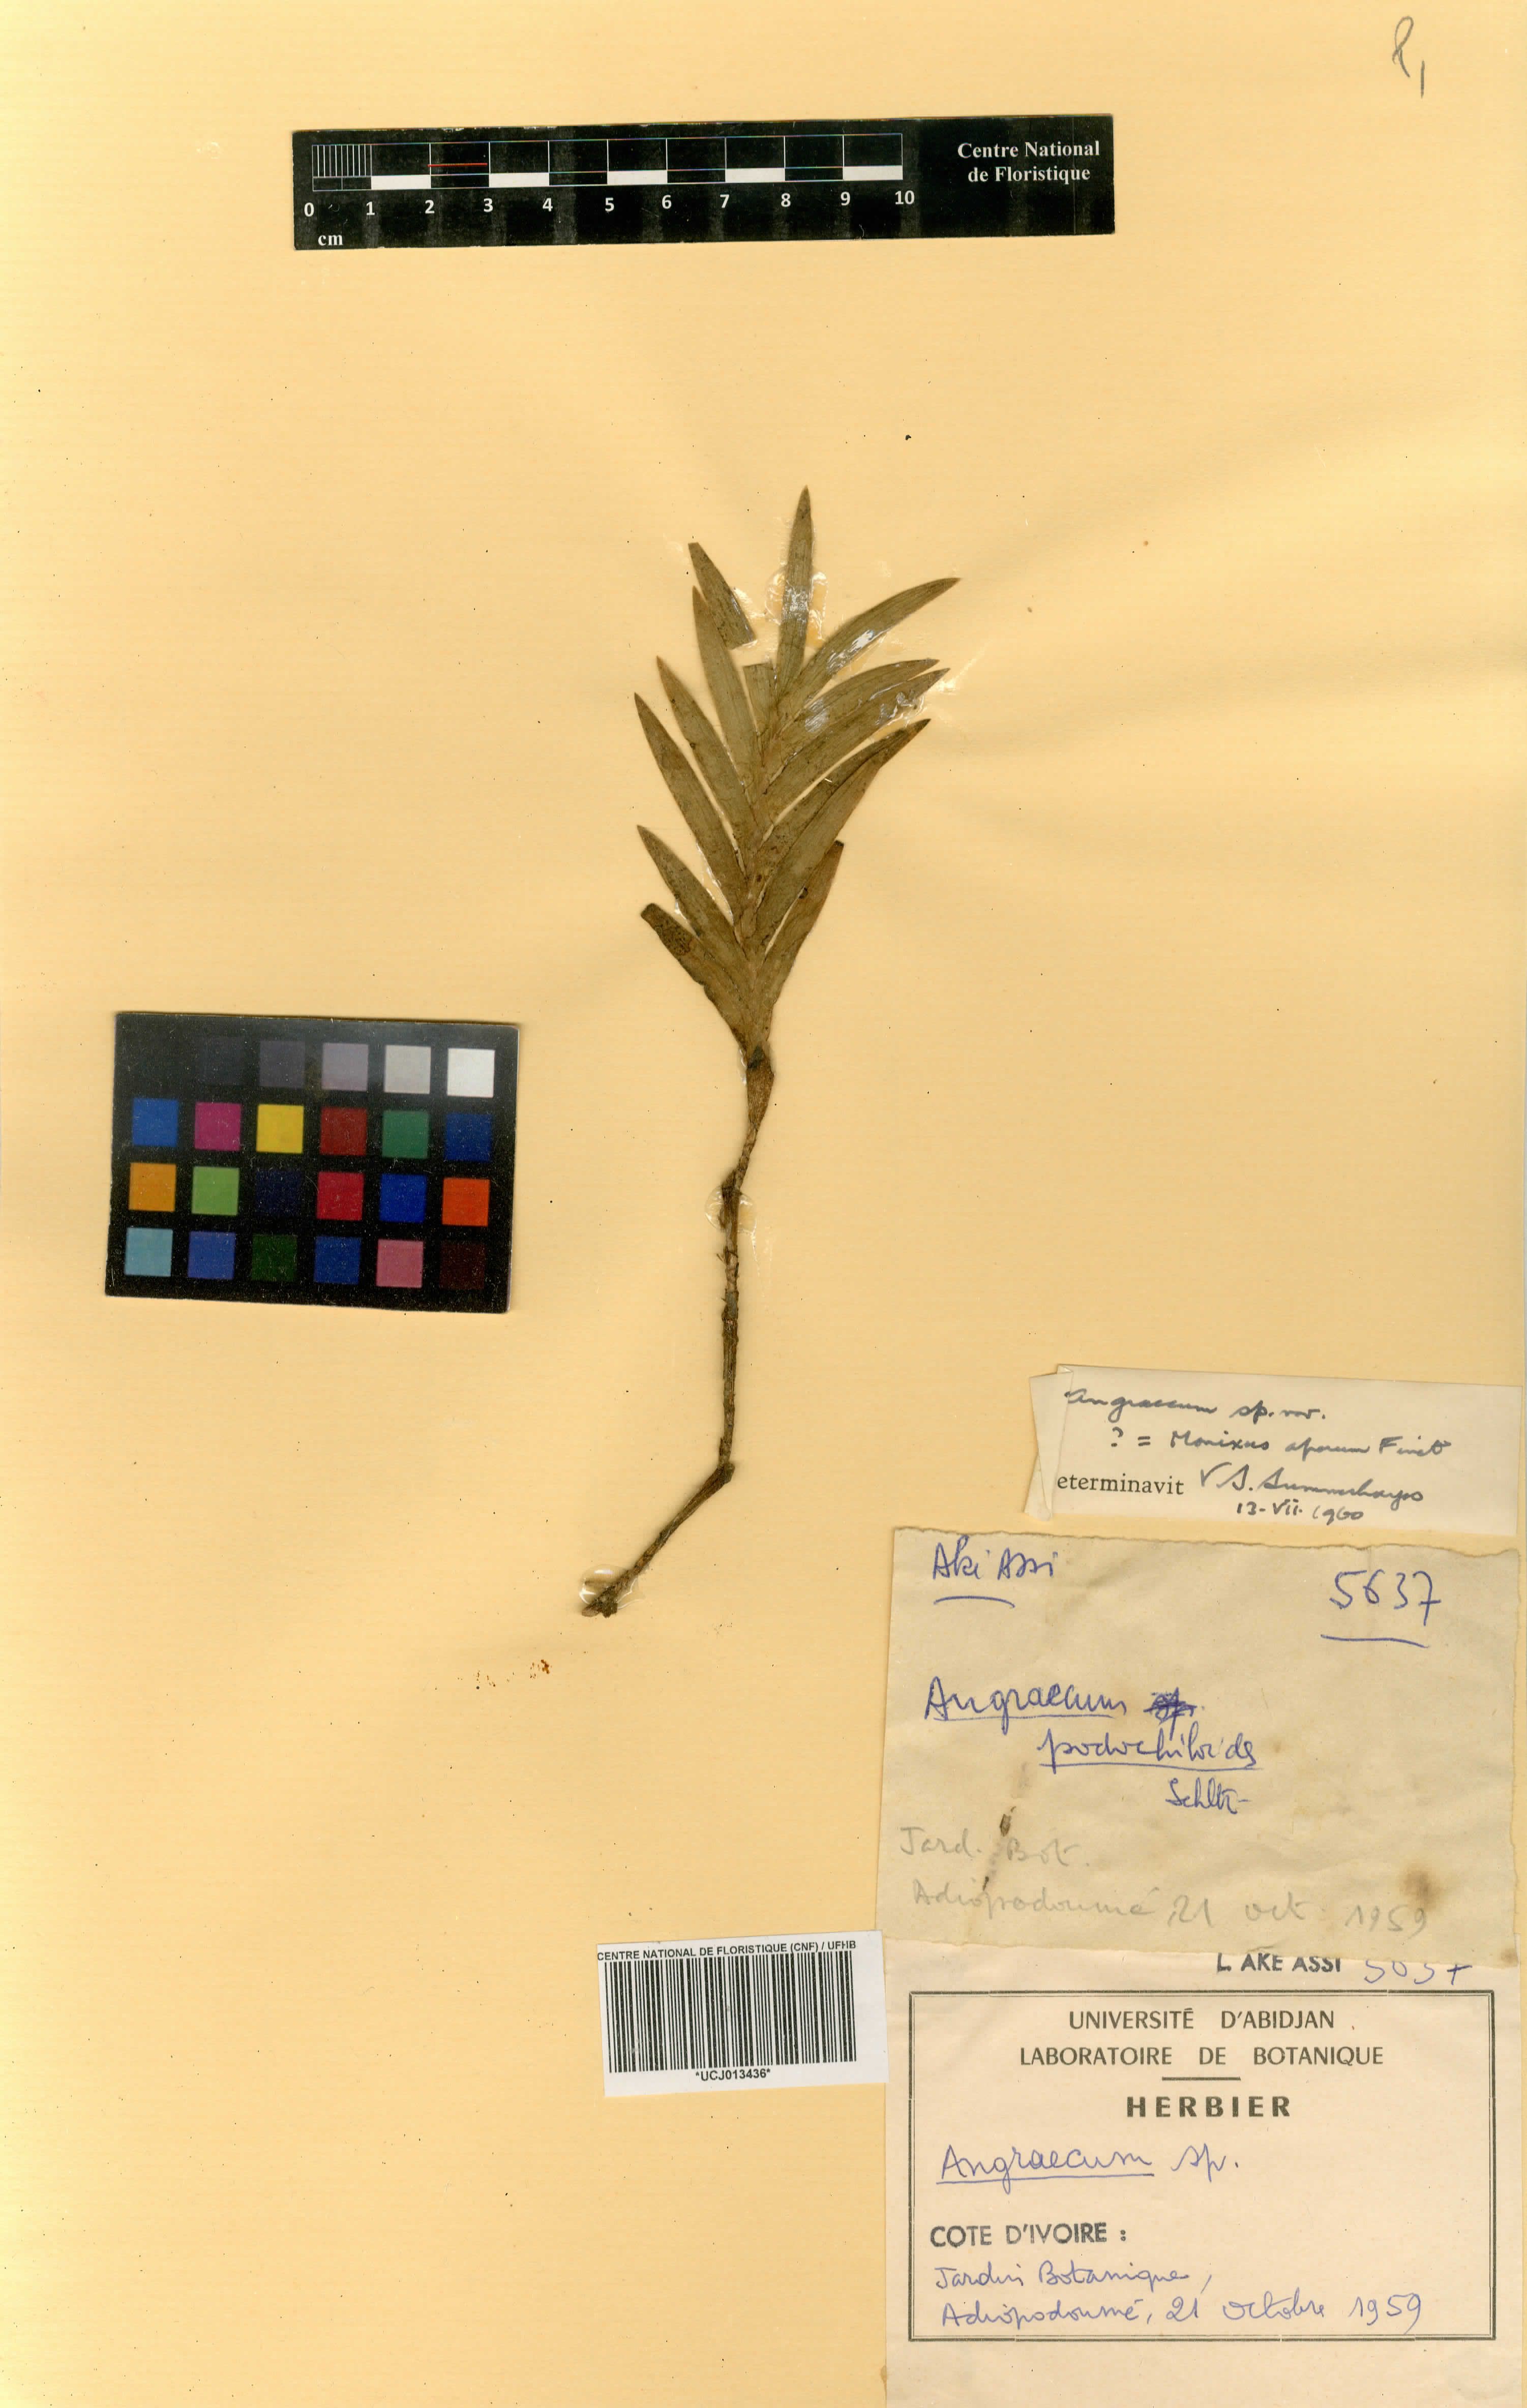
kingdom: Plantae
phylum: Tracheophyta
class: Liliopsida
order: Asparagales
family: Orchidaceae
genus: Angraecum
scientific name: Angraecum
